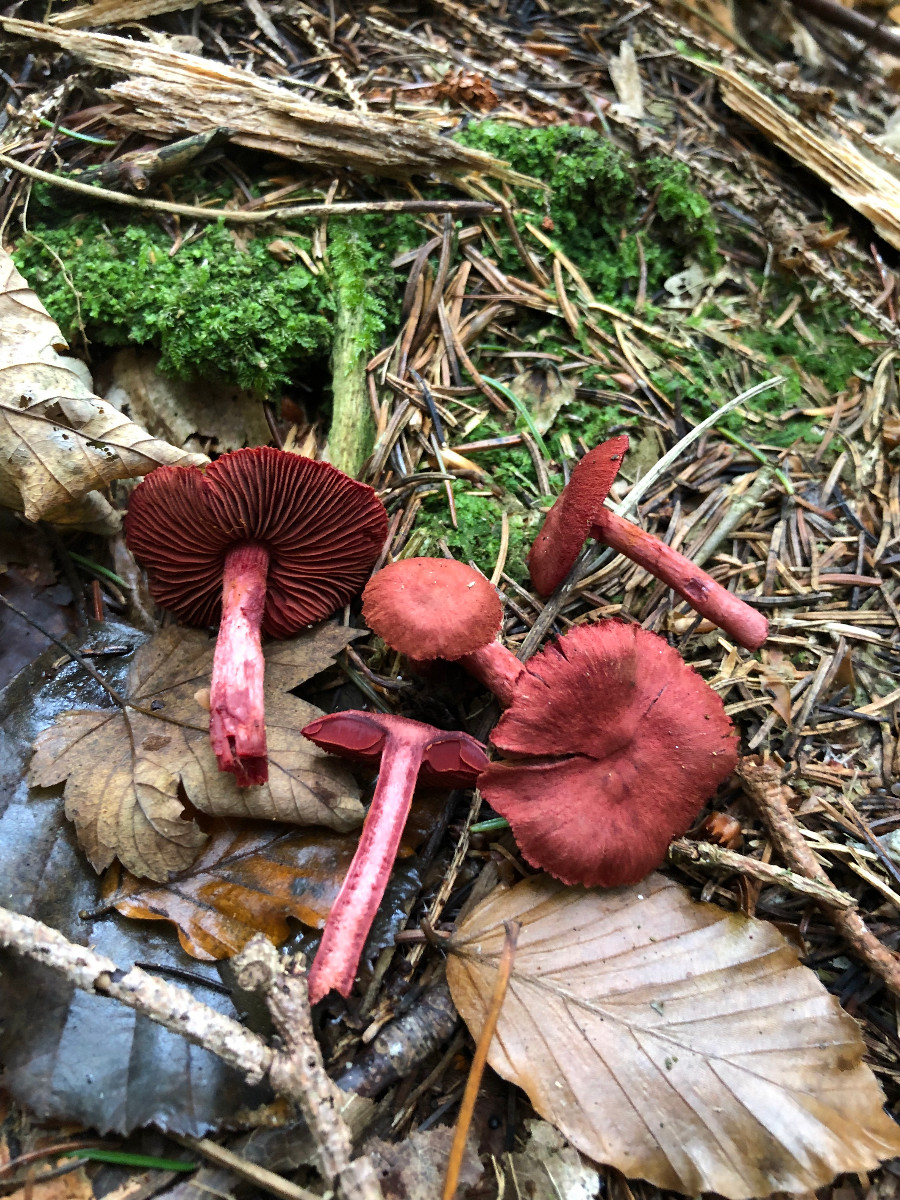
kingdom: Fungi
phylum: Basidiomycota
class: Agaricomycetes
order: Agaricales
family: Cortinariaceae
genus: Cortinarius
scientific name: Cortinarius sanguineus
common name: blodrød slørhat
